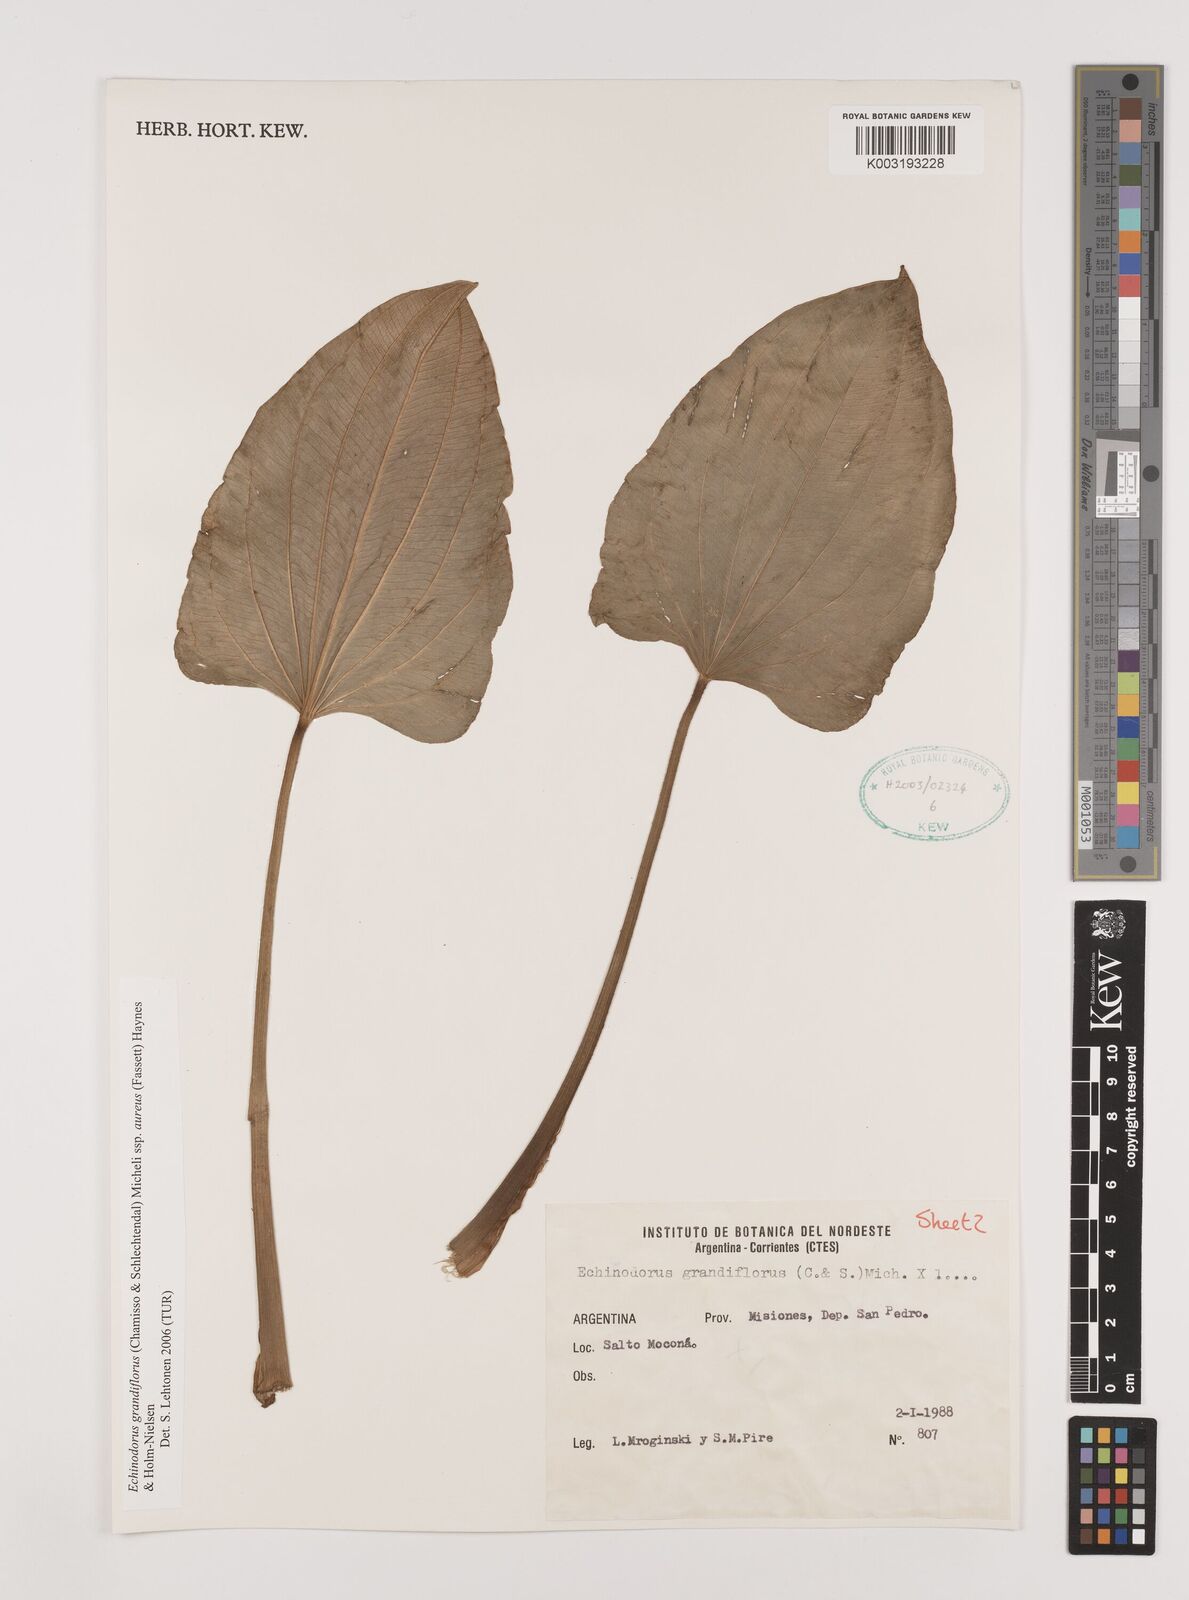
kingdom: Plantae
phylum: Tracheophyta
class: Liliopsida
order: Alismatales
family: Alismataceae
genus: Aquarius
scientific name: Aquarius floribundus
